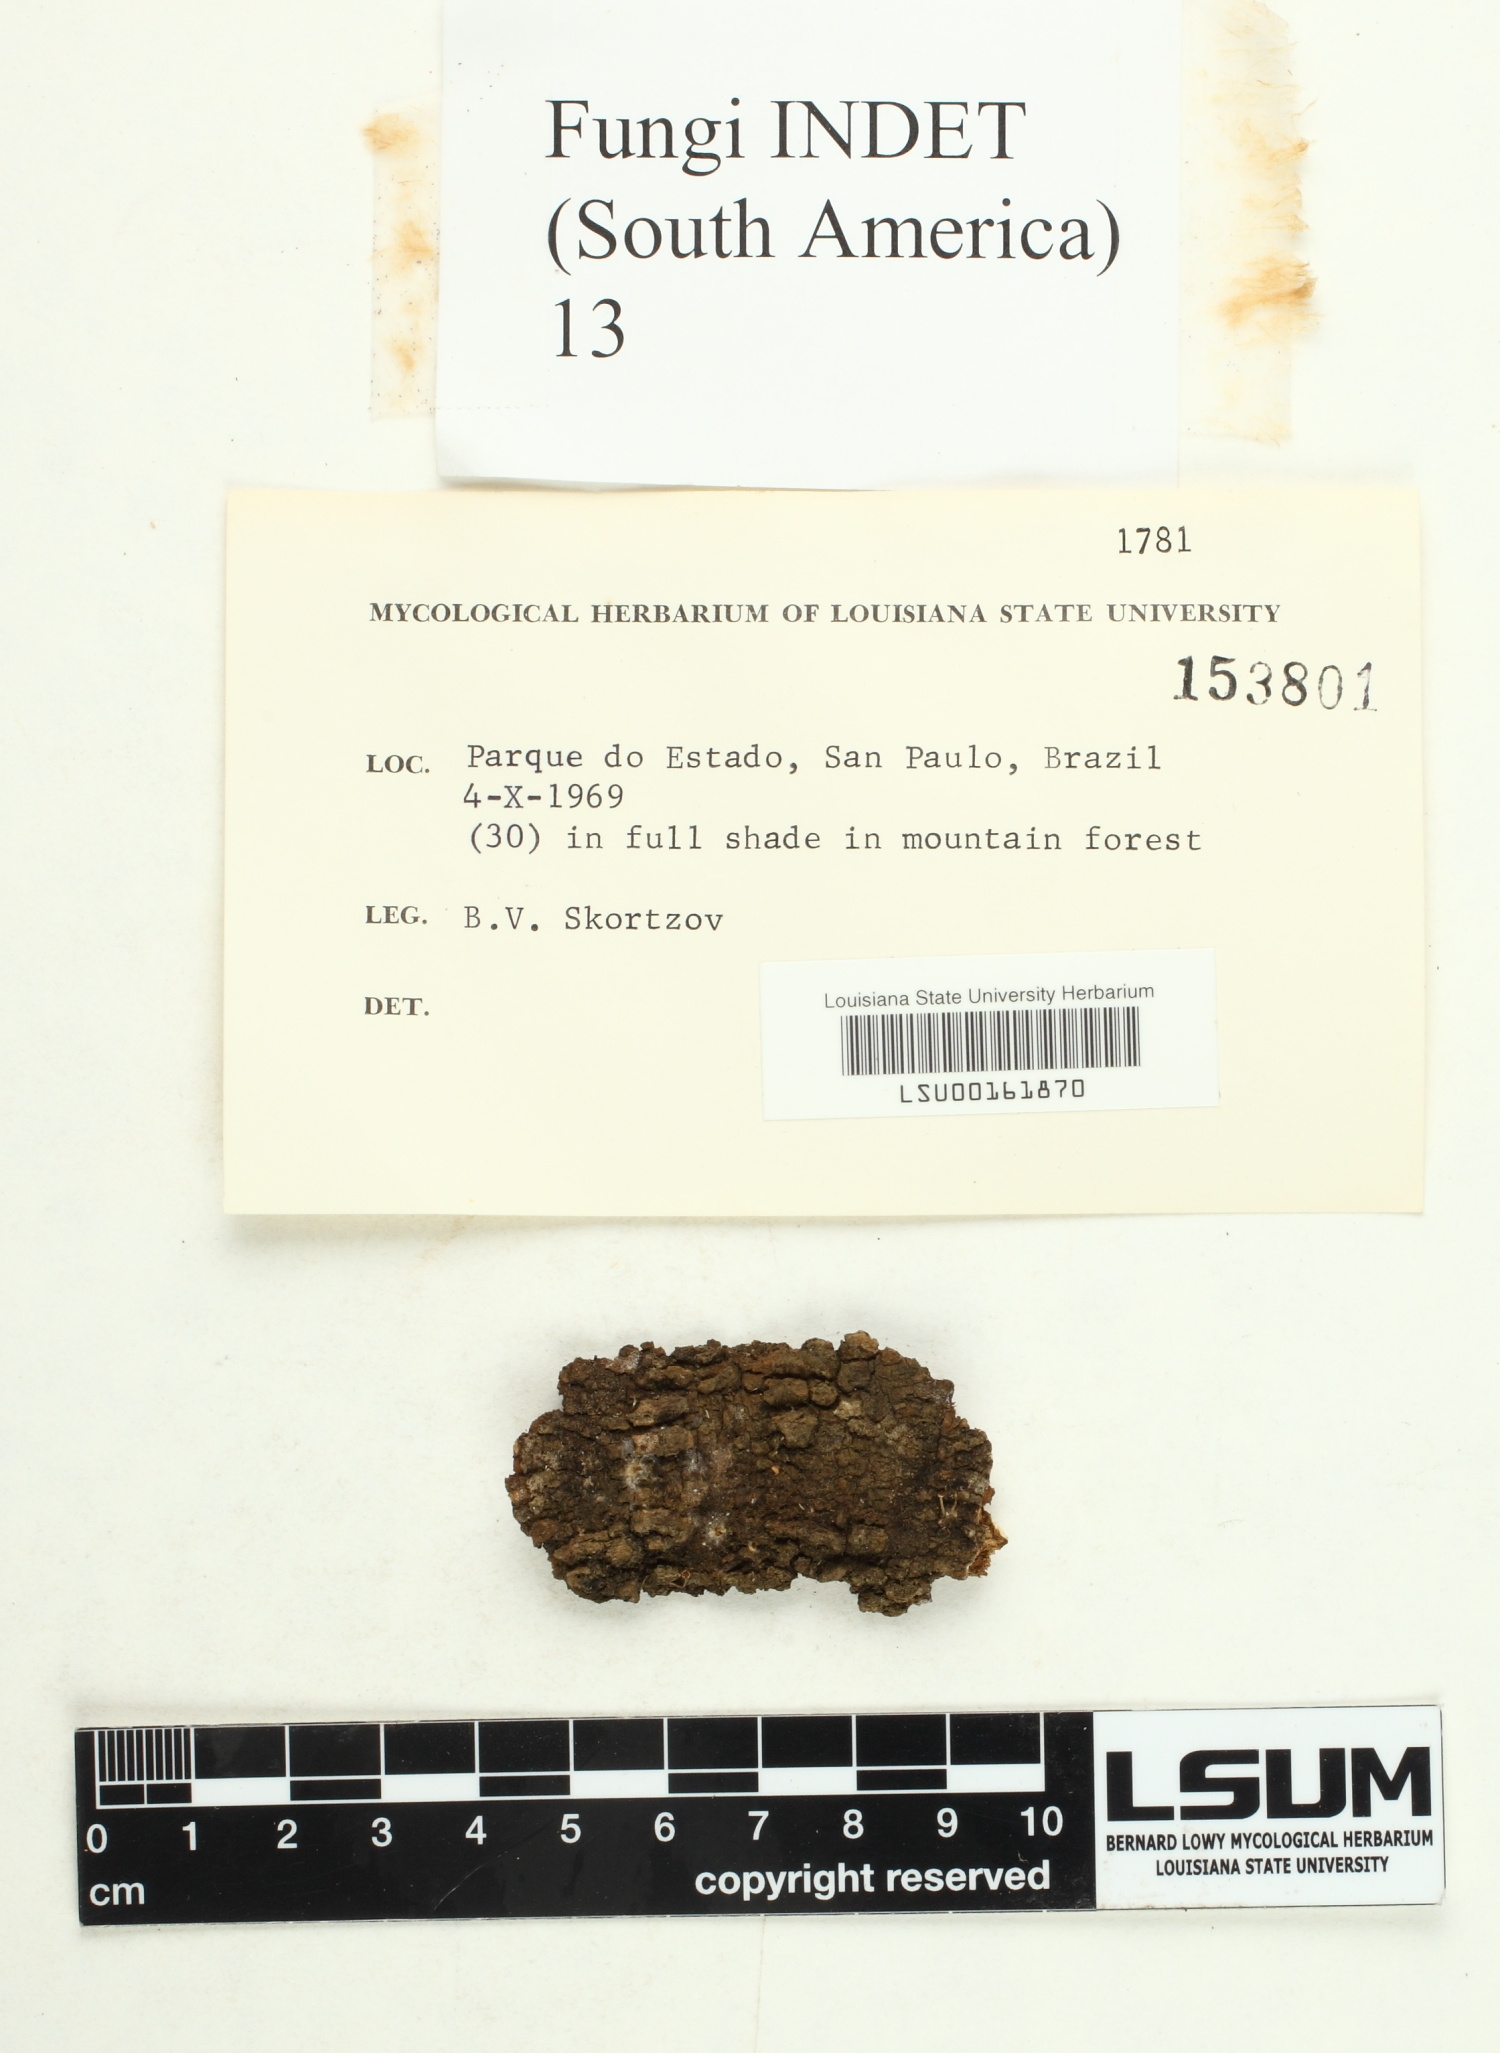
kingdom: Fungi
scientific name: Fungi
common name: Fungi
